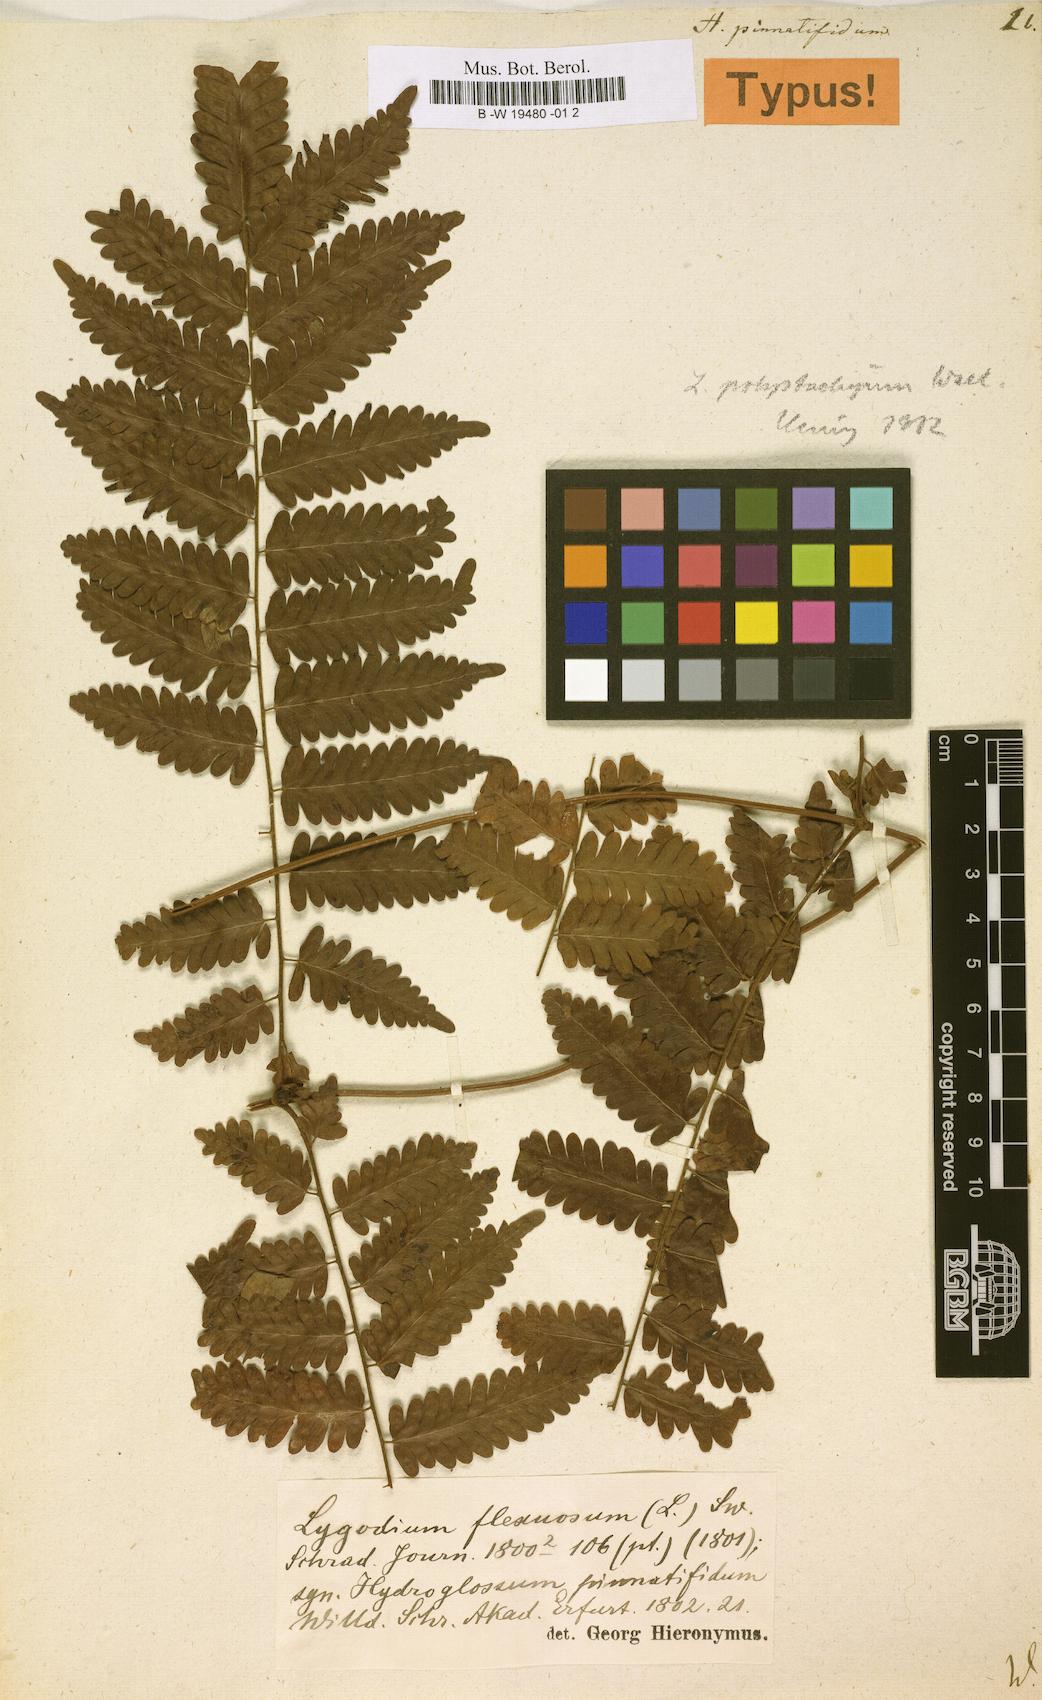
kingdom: Plantae
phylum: Tracheophyta
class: Polypodiopsida
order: Schizaeales
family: Lygodiaceae
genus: Lygodium
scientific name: Lygodium flexuosum
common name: Maidenhair creeper
